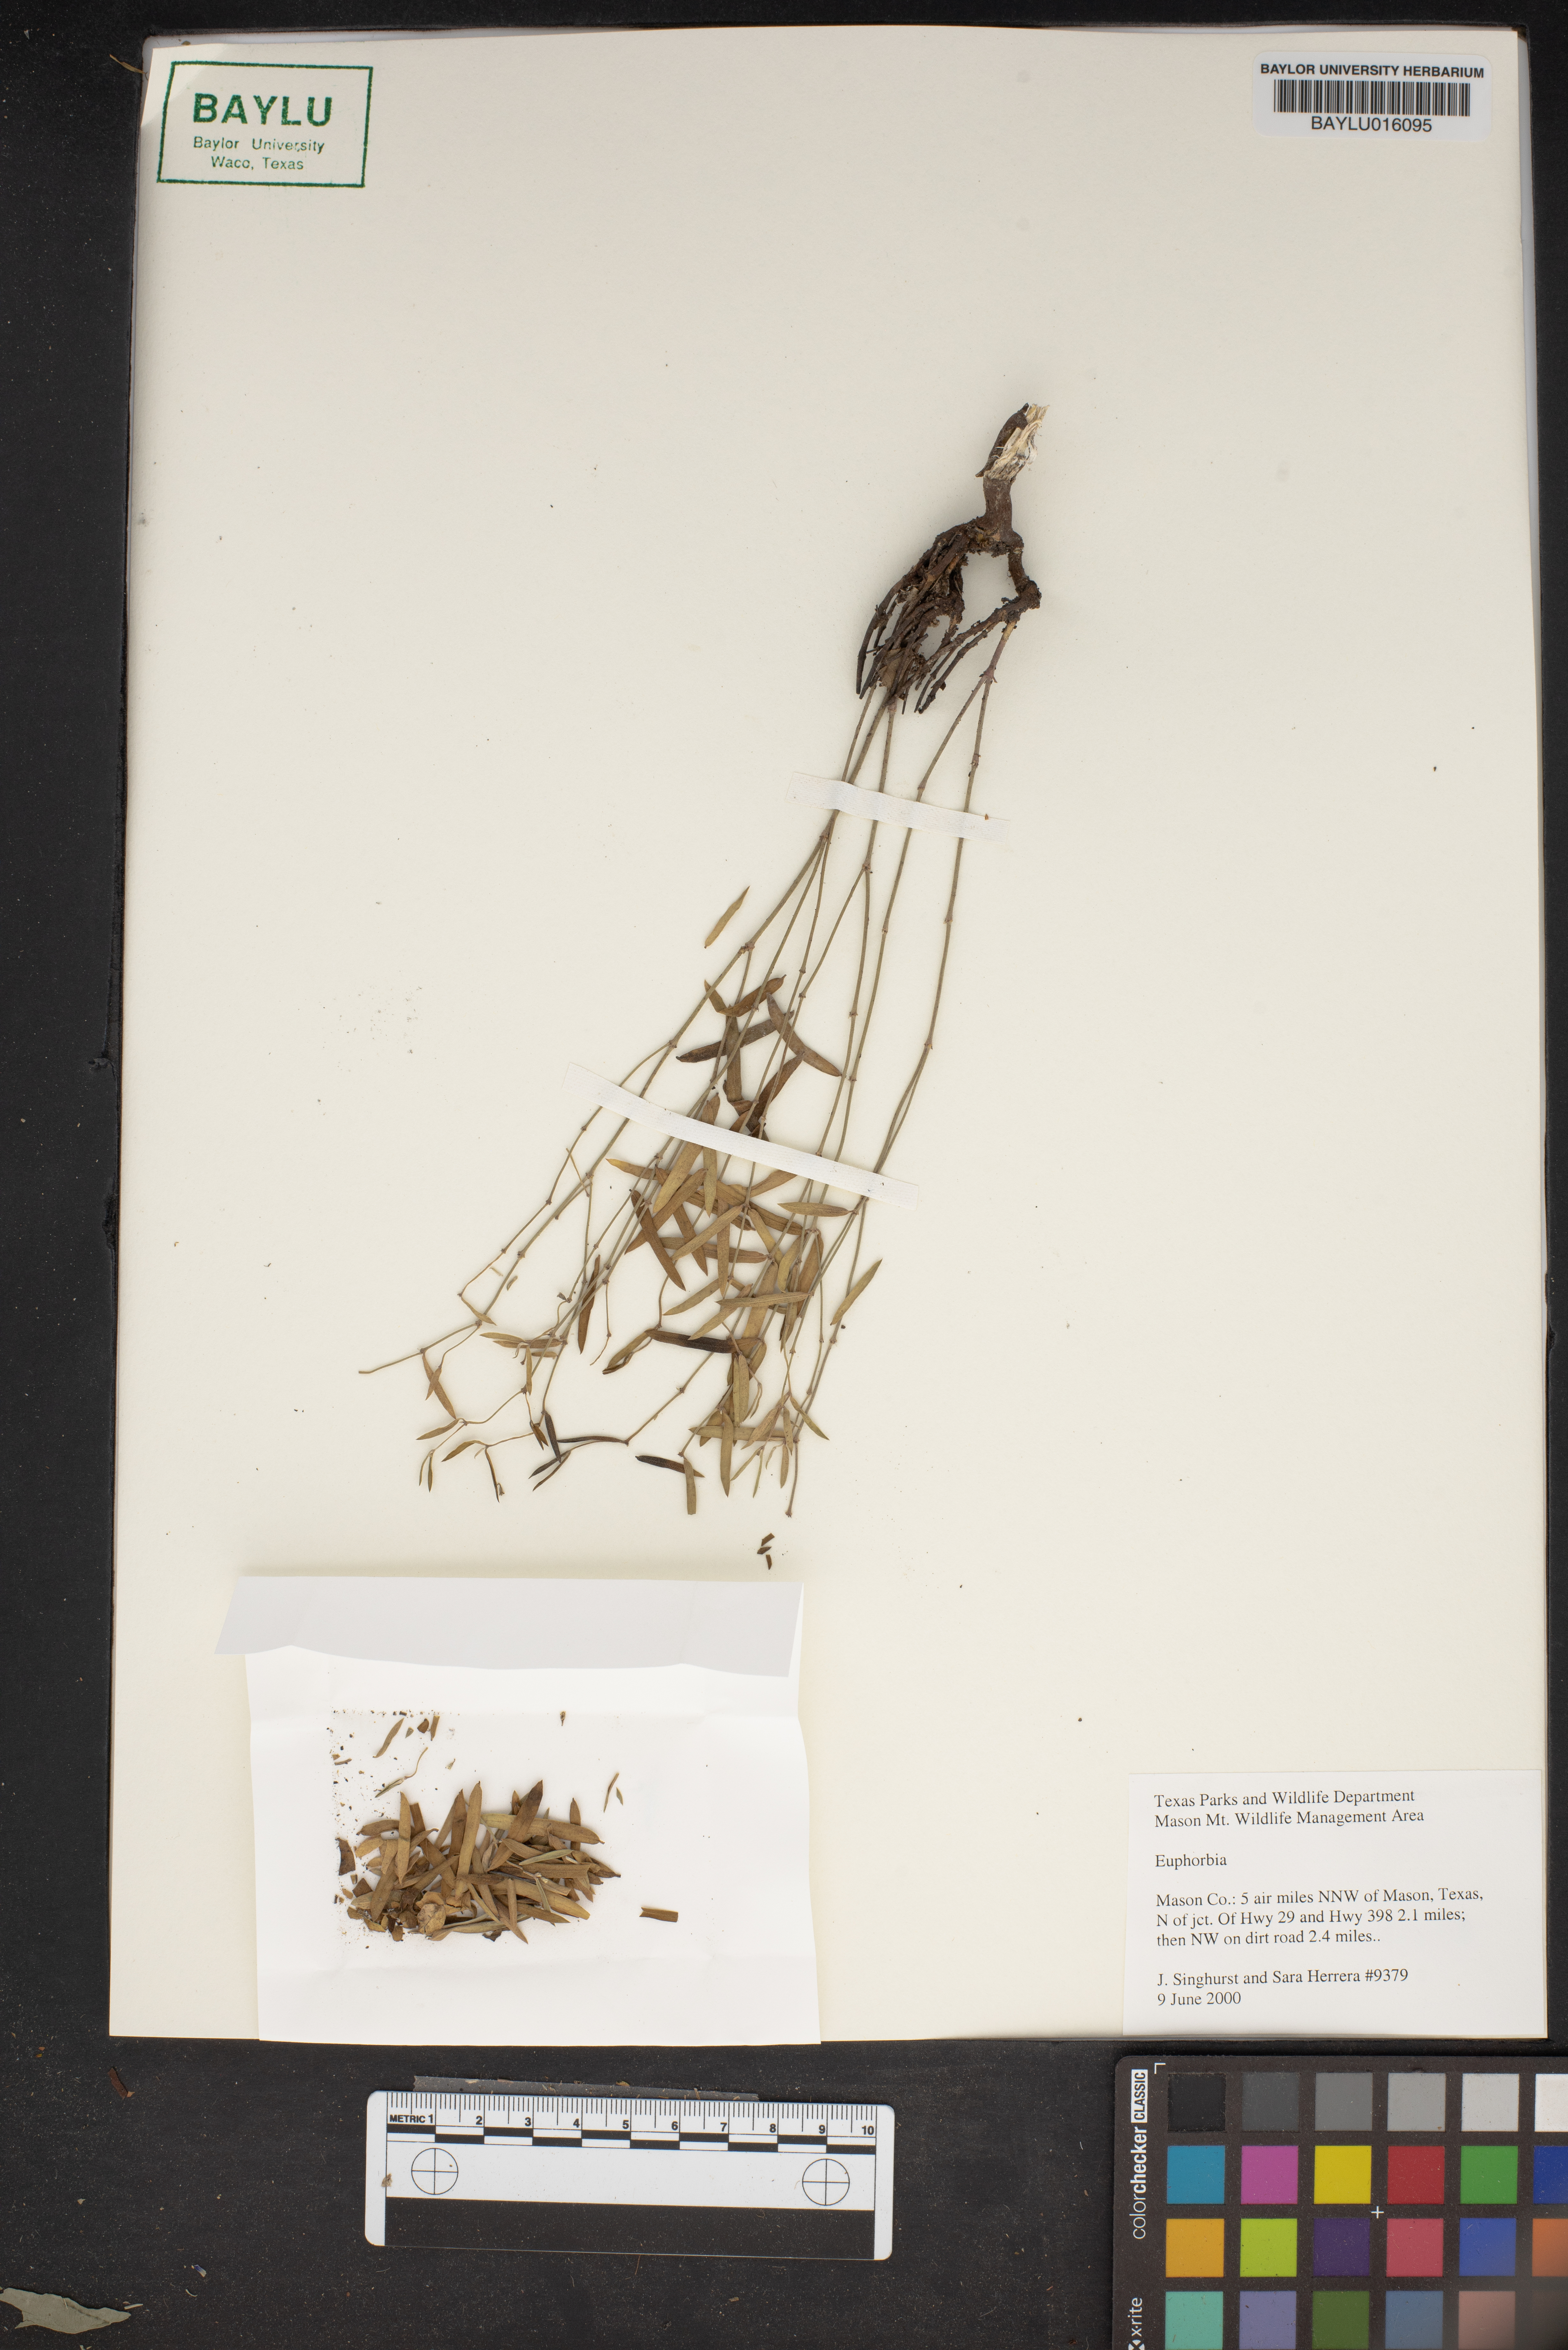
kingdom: Plantae
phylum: Tracheophyta
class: Magnoliopsida
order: Malpighiales
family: Euphorbiaceae
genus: Euphorbia
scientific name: Euphorbia
